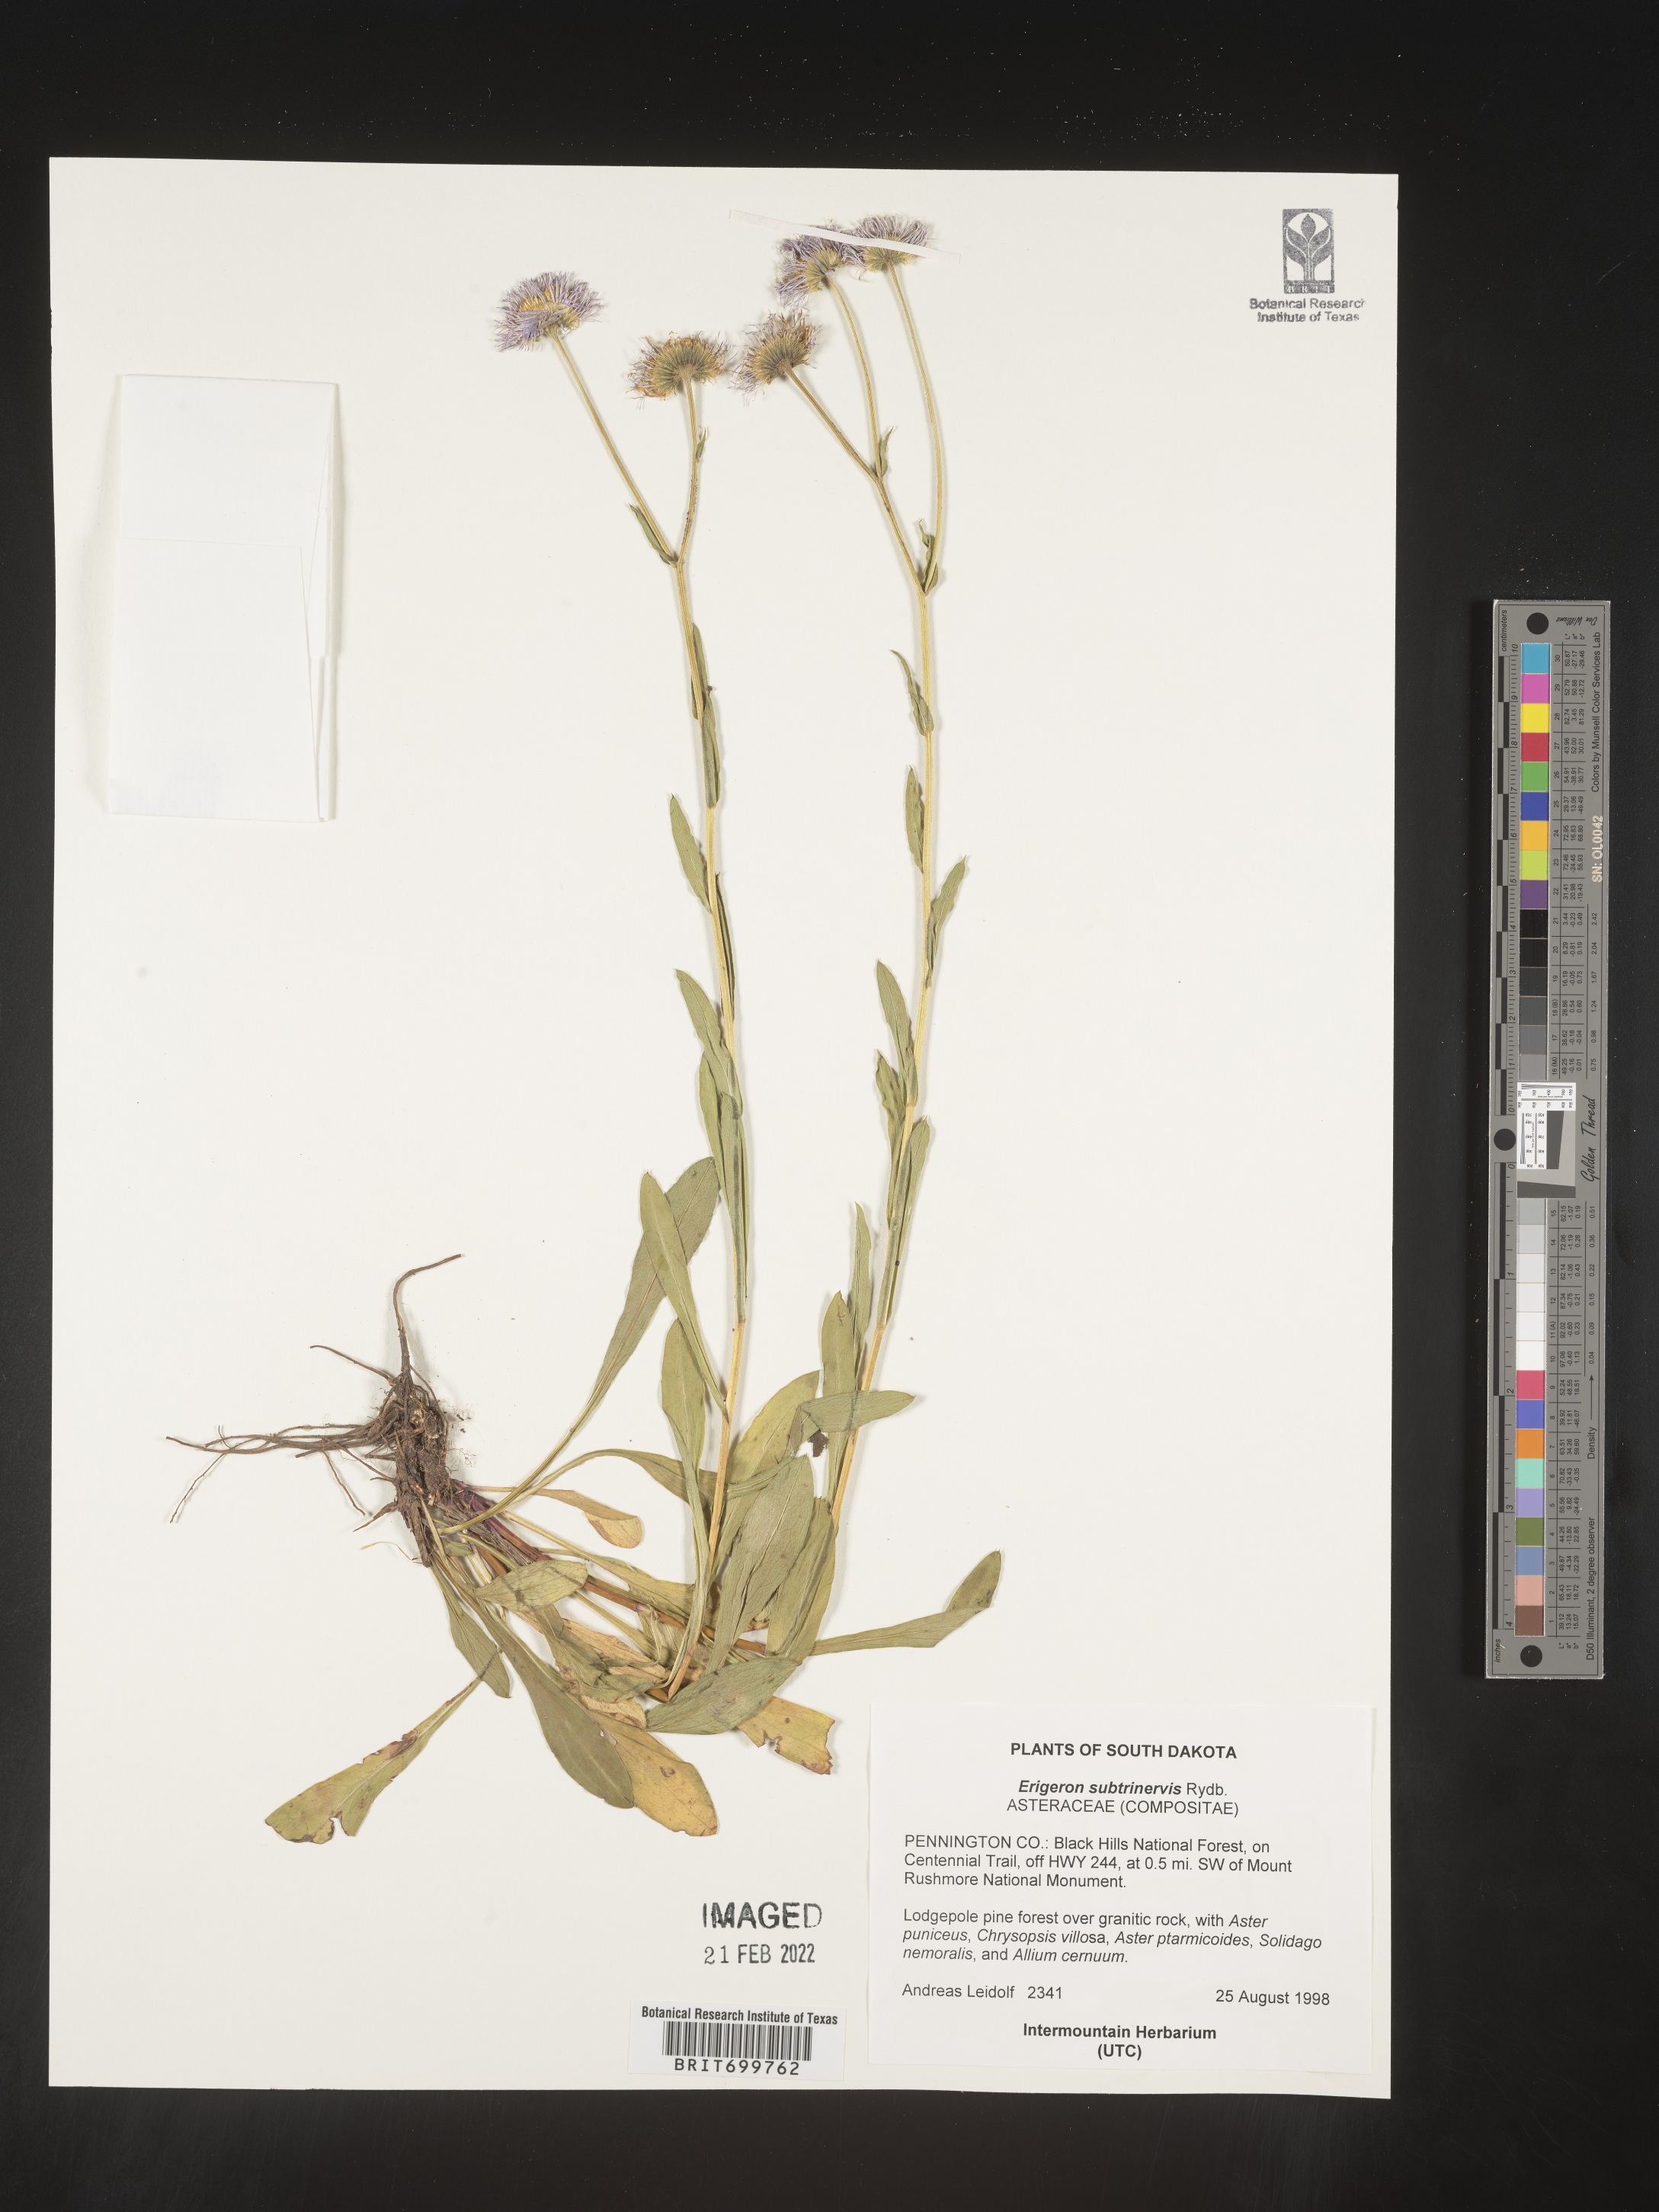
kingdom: Plantae
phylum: Tracheophyta
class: Magnoliopsida
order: Asterales
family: Asteraceae
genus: Erigeron
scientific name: Erigeron subtrinervis
